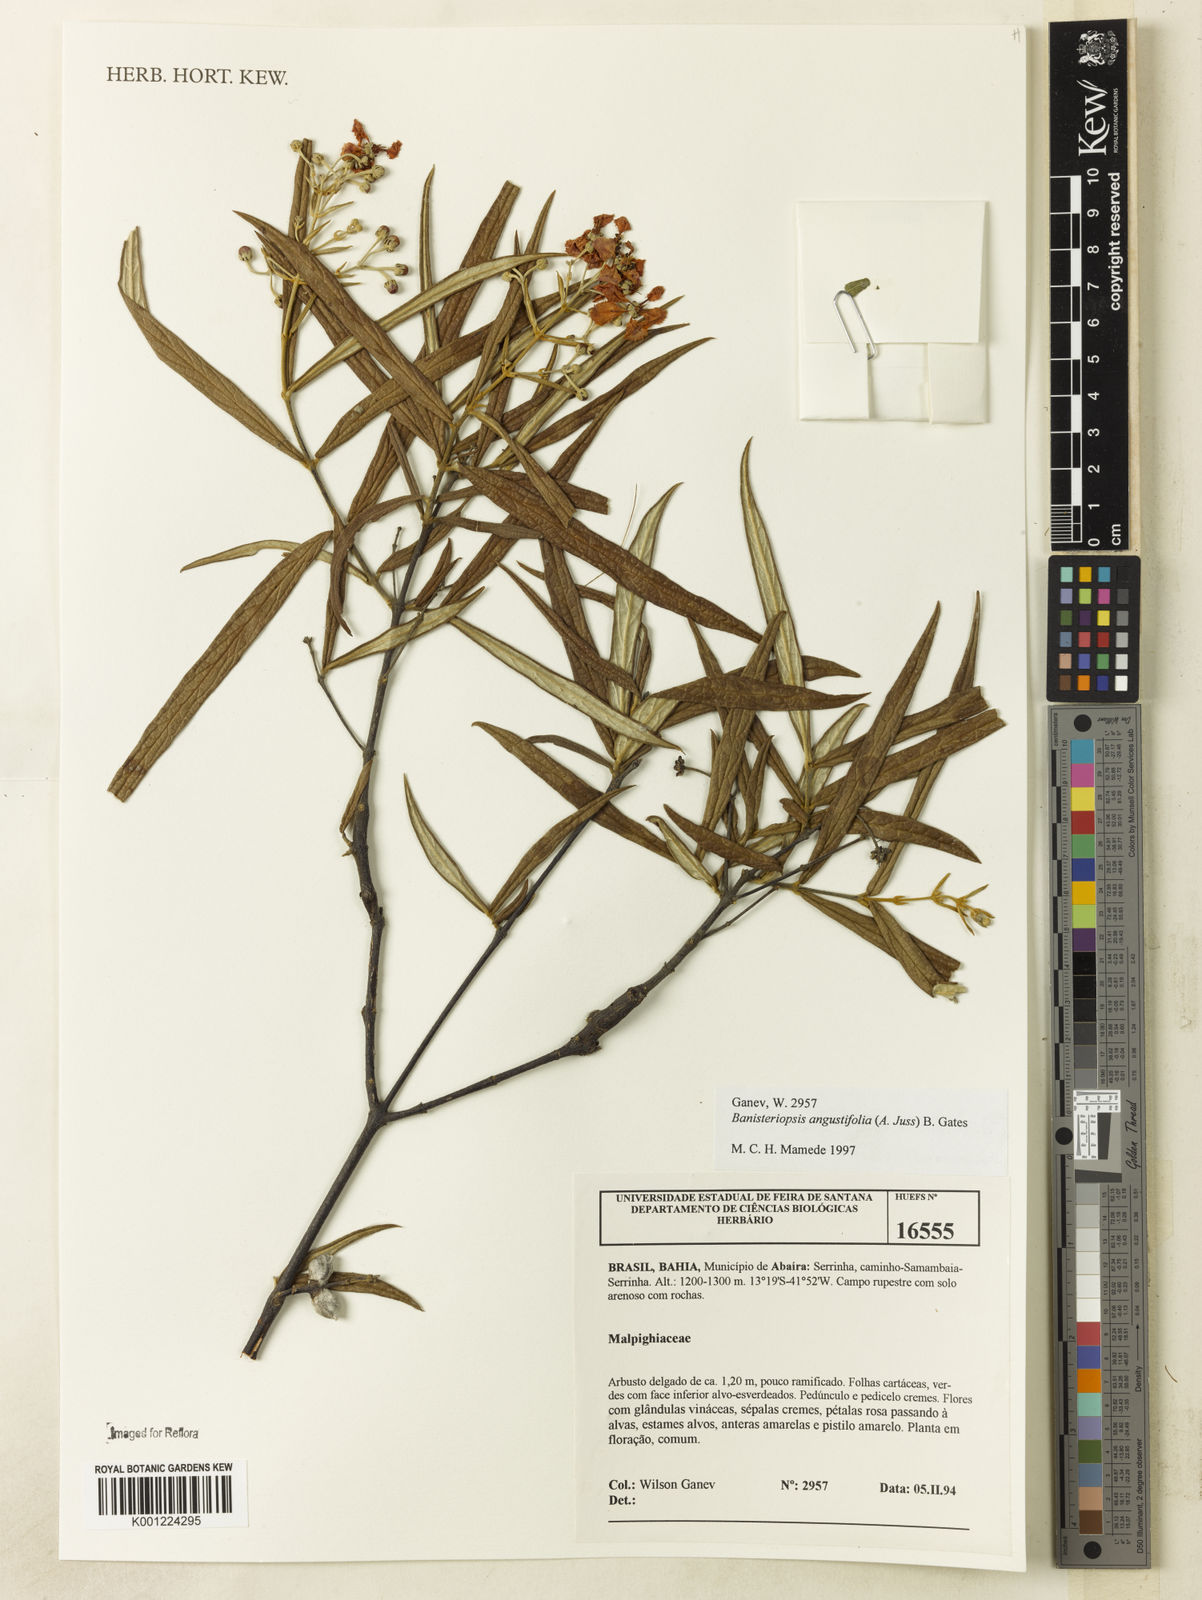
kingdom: Plantae
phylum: Tracheophyta
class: Magnoliopsida
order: Malpighiales
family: Malpighiaceae
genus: Banisteriopsis
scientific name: Banisteriopsis angustifolia
